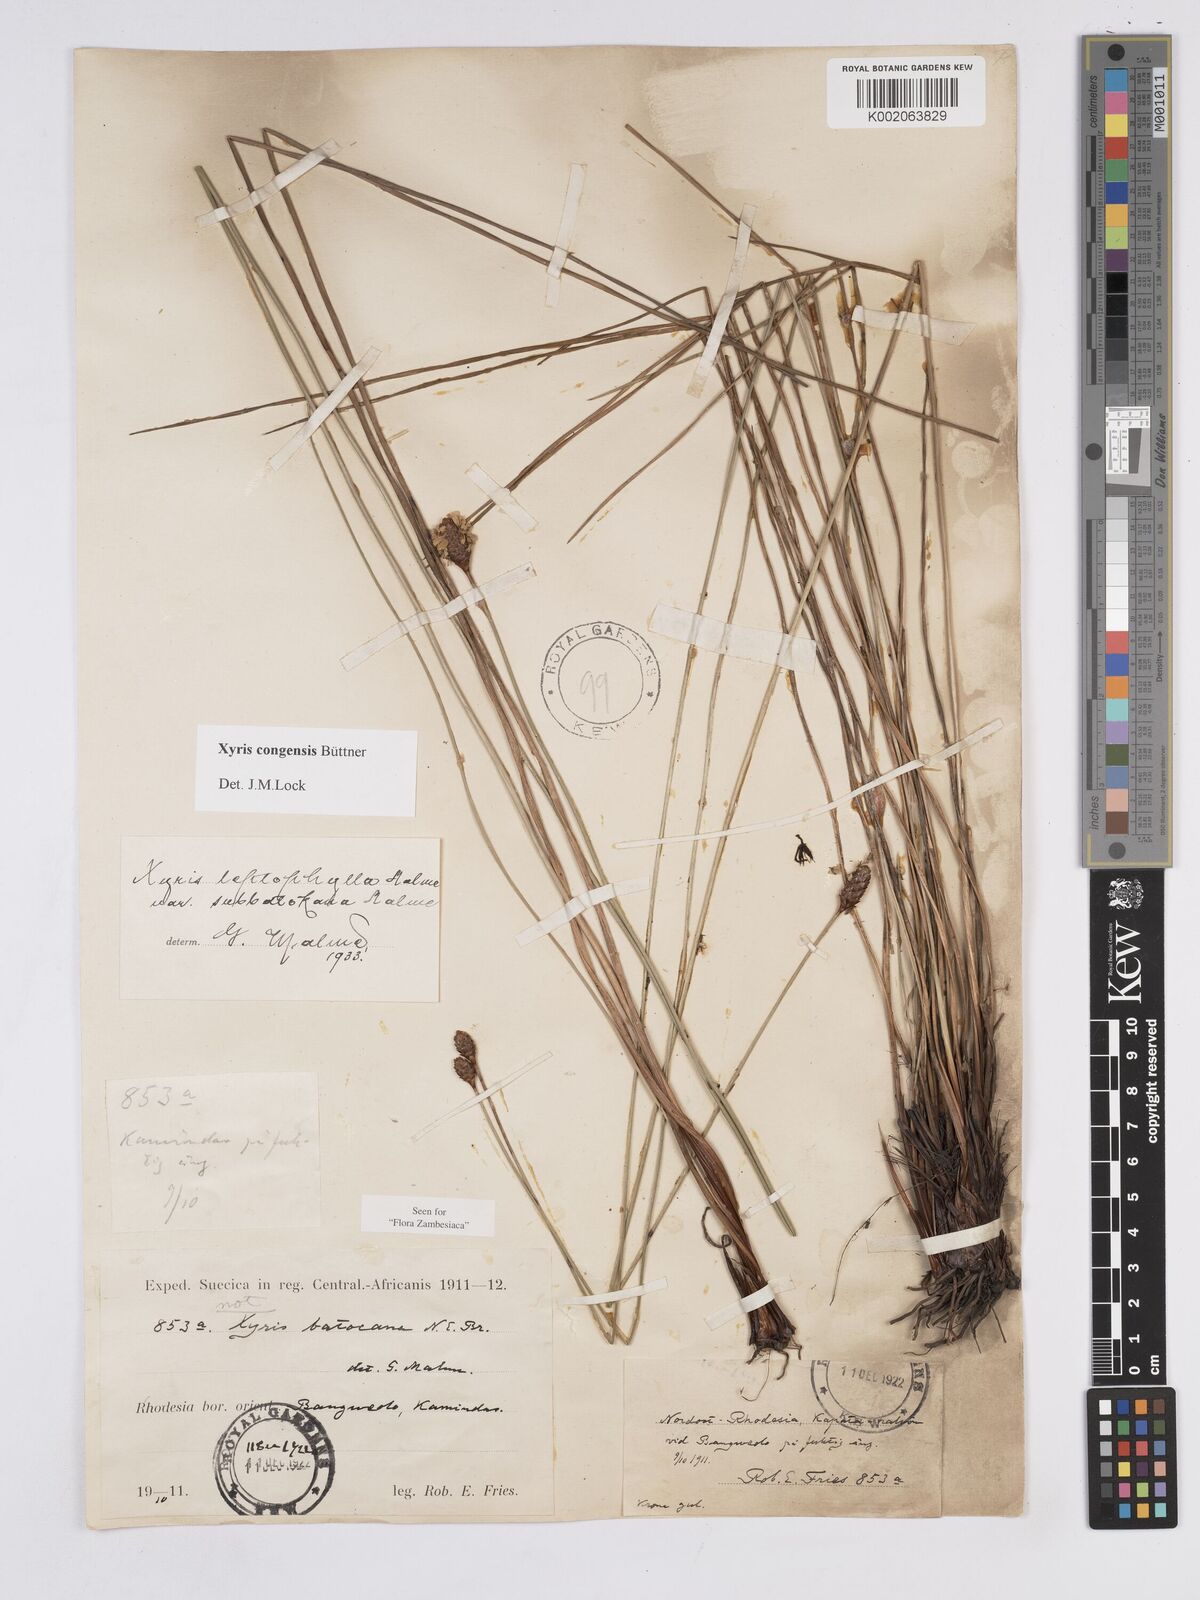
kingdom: Plantae
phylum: Tracheophyta
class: Liliopsida
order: Poales
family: Xyridaceae
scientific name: Xyridaceae
